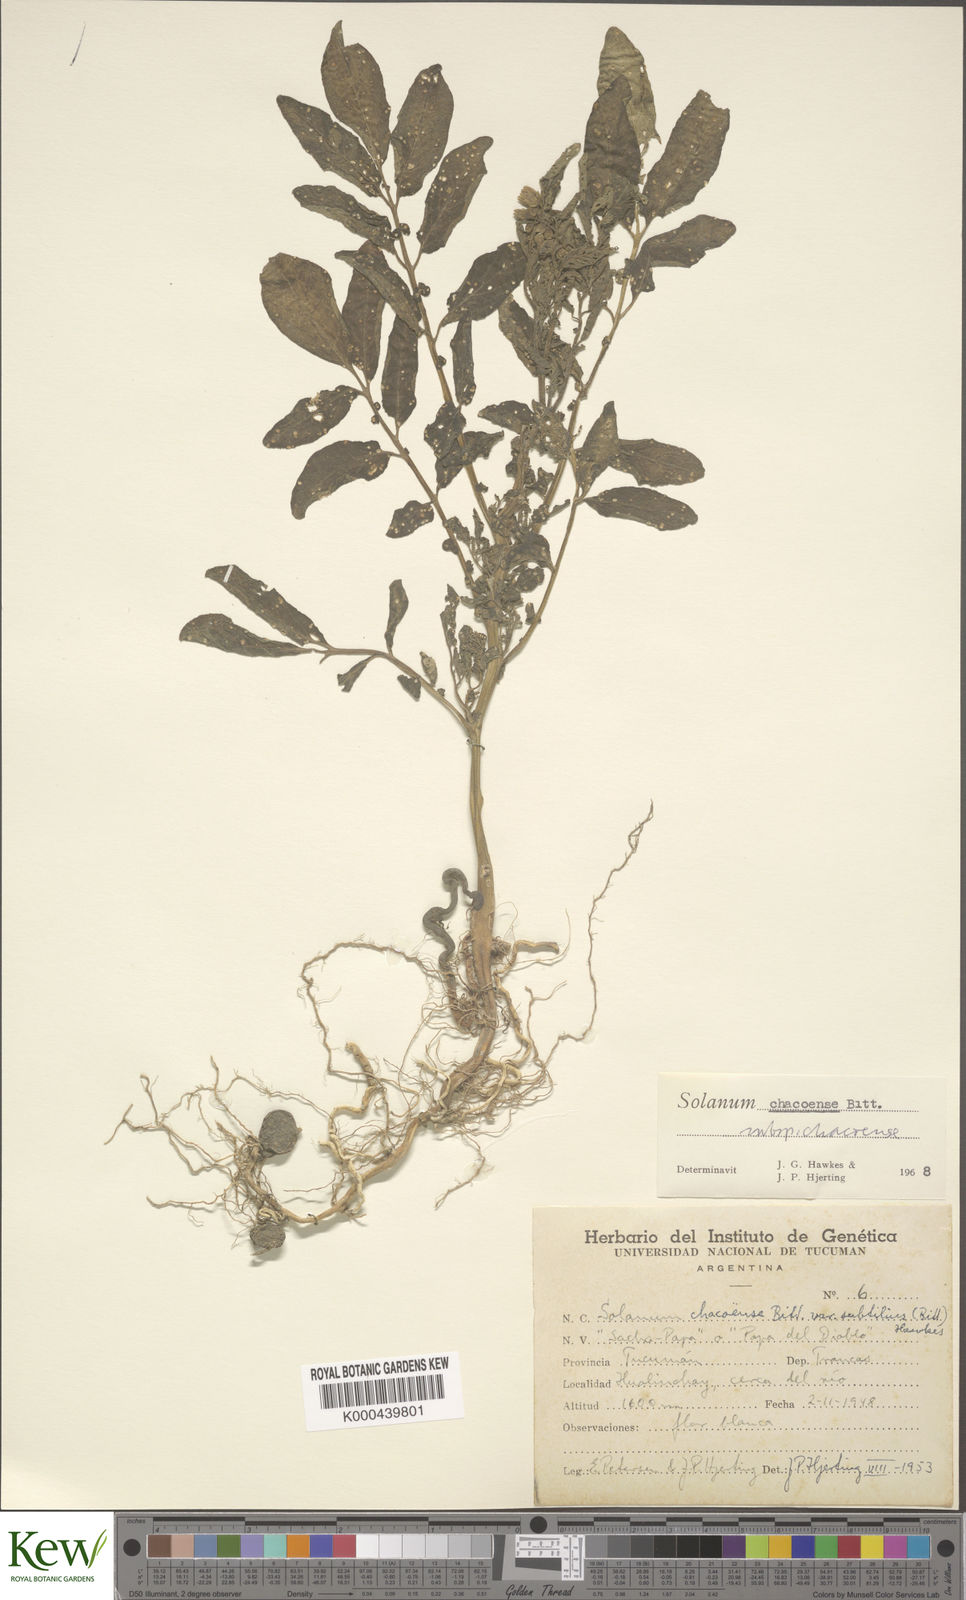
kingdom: Plantae
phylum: Tracheophyta
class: Magnoliopsida
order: Solanales
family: Solanaceae
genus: Solanum
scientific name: Solanum chacoense
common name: Chaco potato
